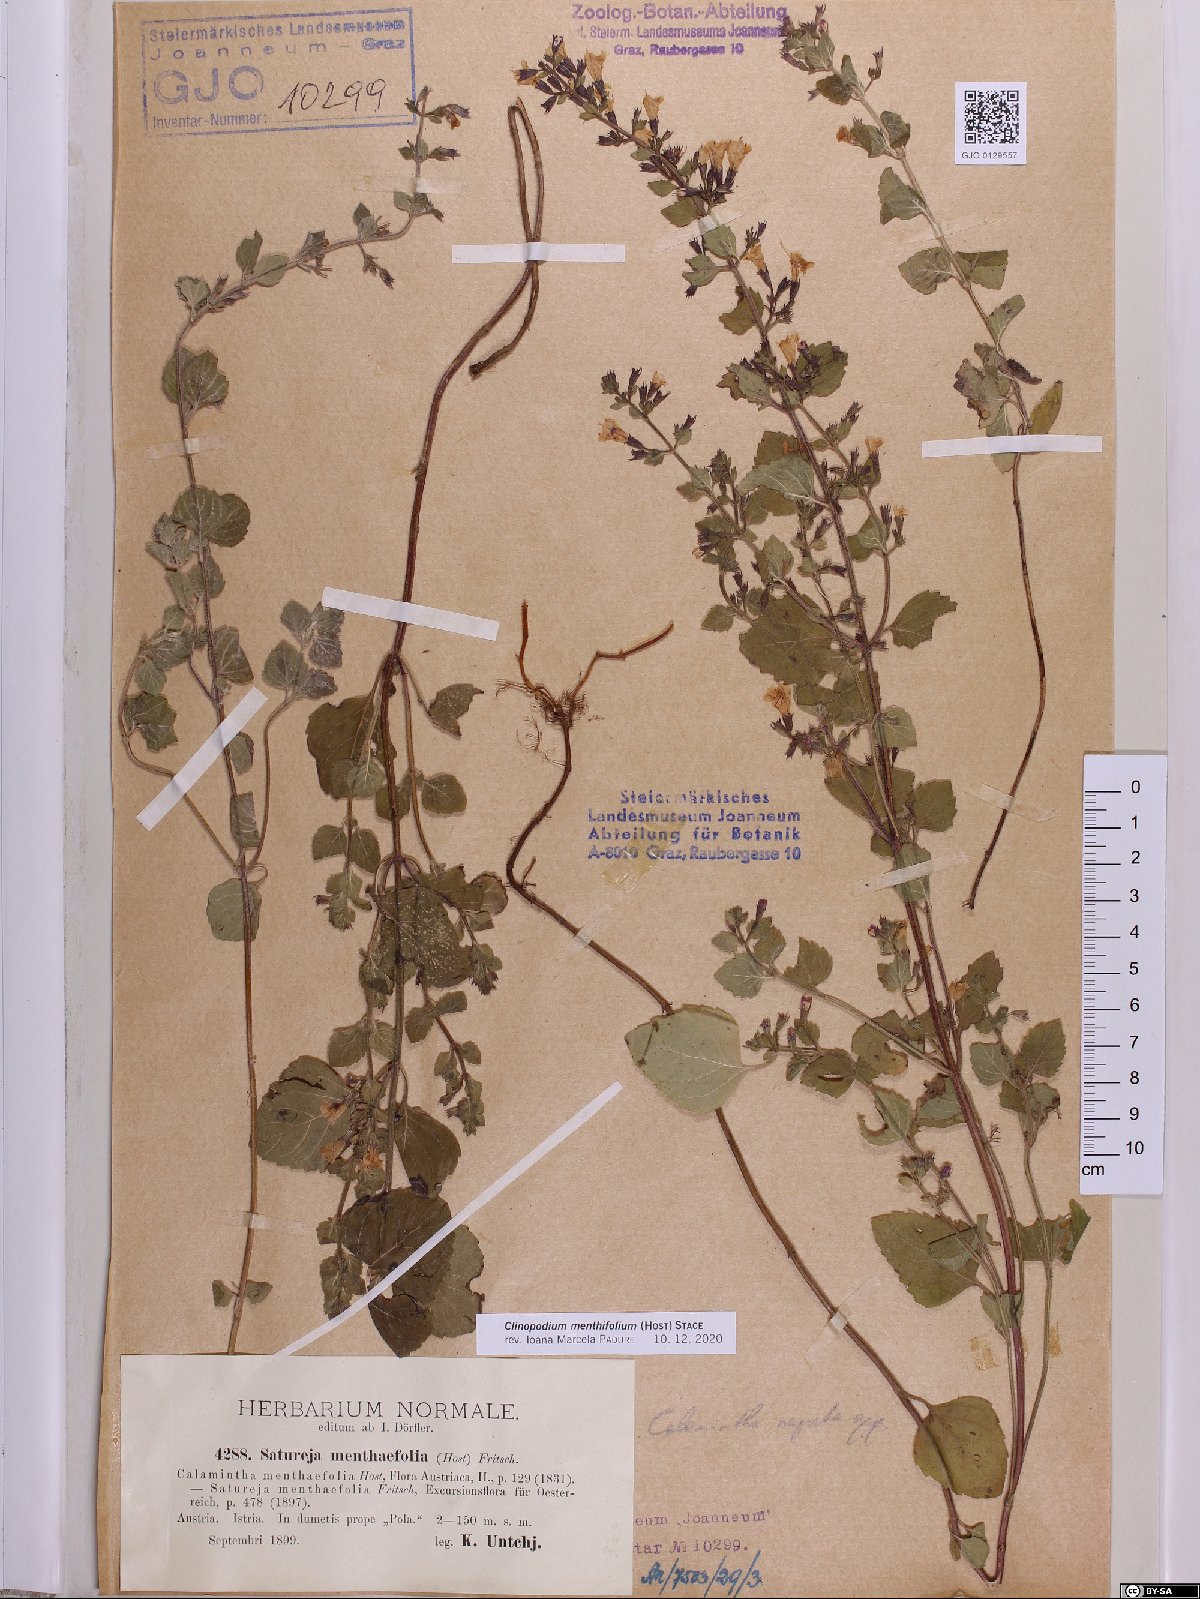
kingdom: Plantae
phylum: Tracheophyta
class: Magnoliopsida
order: Lamiales
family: Lamiaceae
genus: Clinopodium
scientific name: Clinopodium menthifolium
